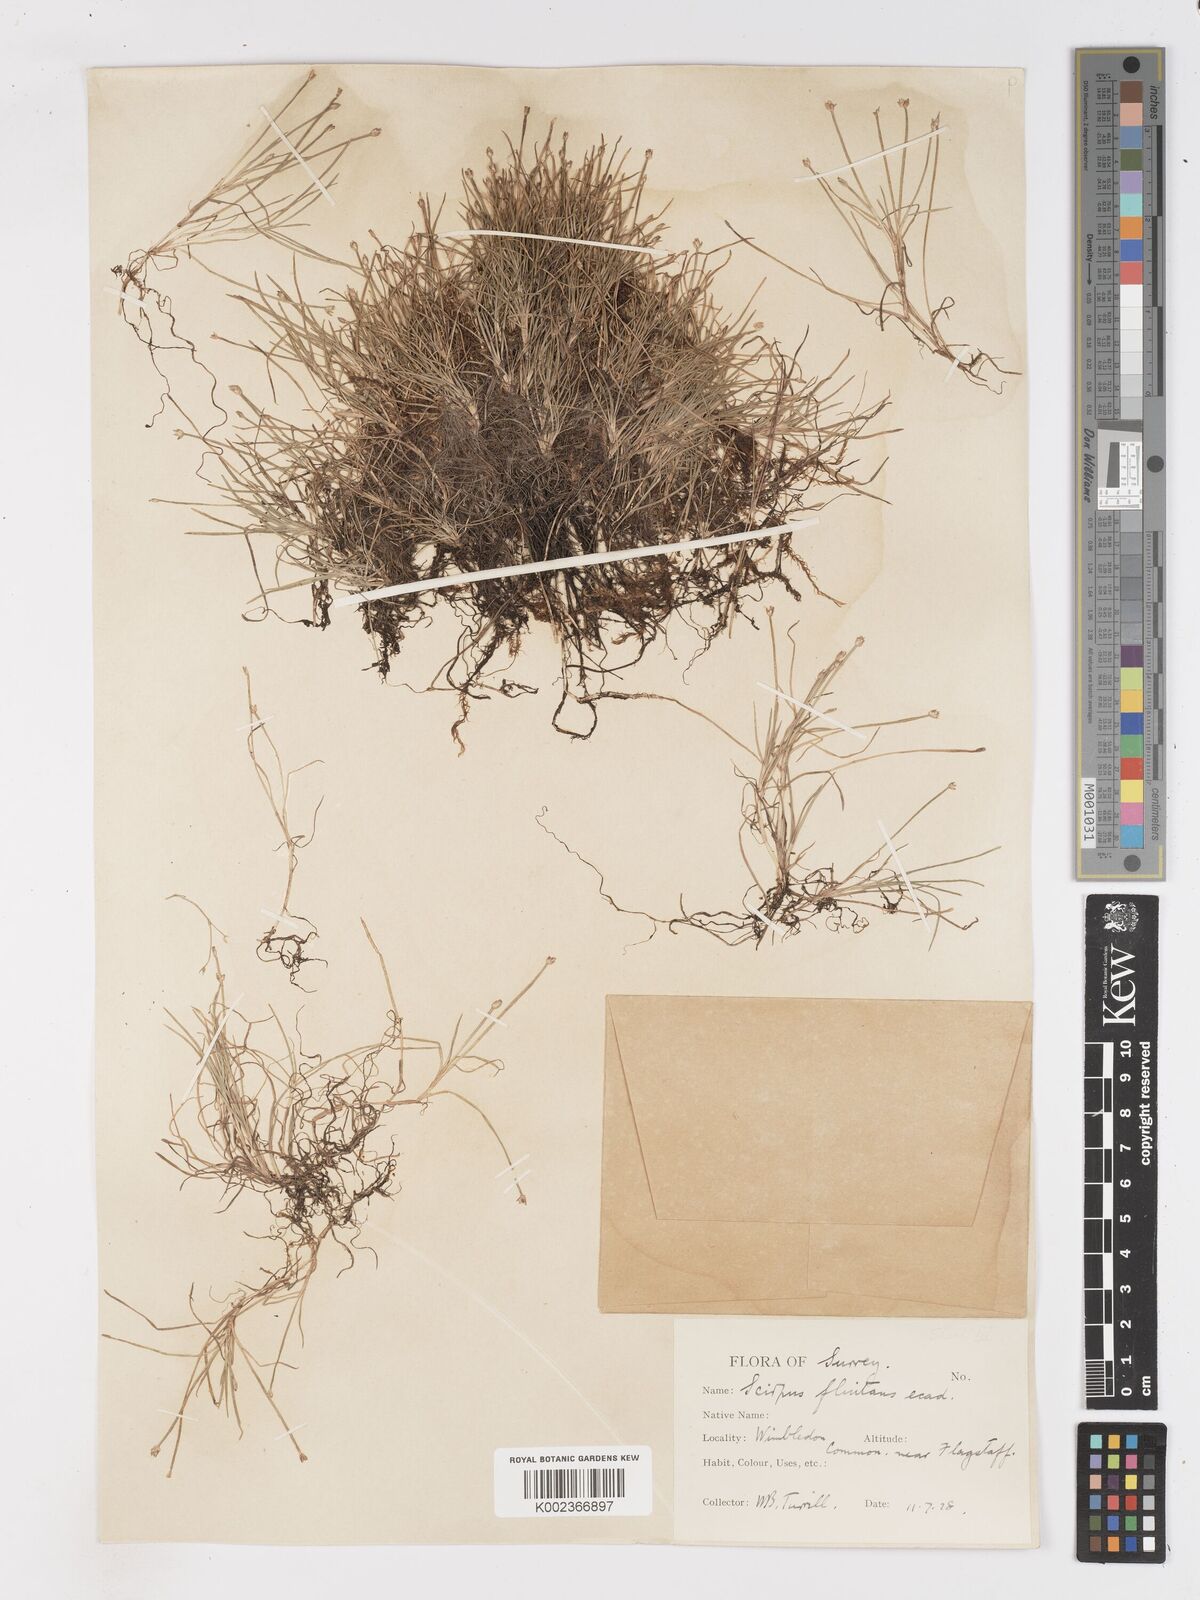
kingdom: Plantae
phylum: Tracheophyta
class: Liliopsida
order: Poales
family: Cyperaceae
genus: Isolepis
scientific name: Isolepis fluitans
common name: Floating club-rush
